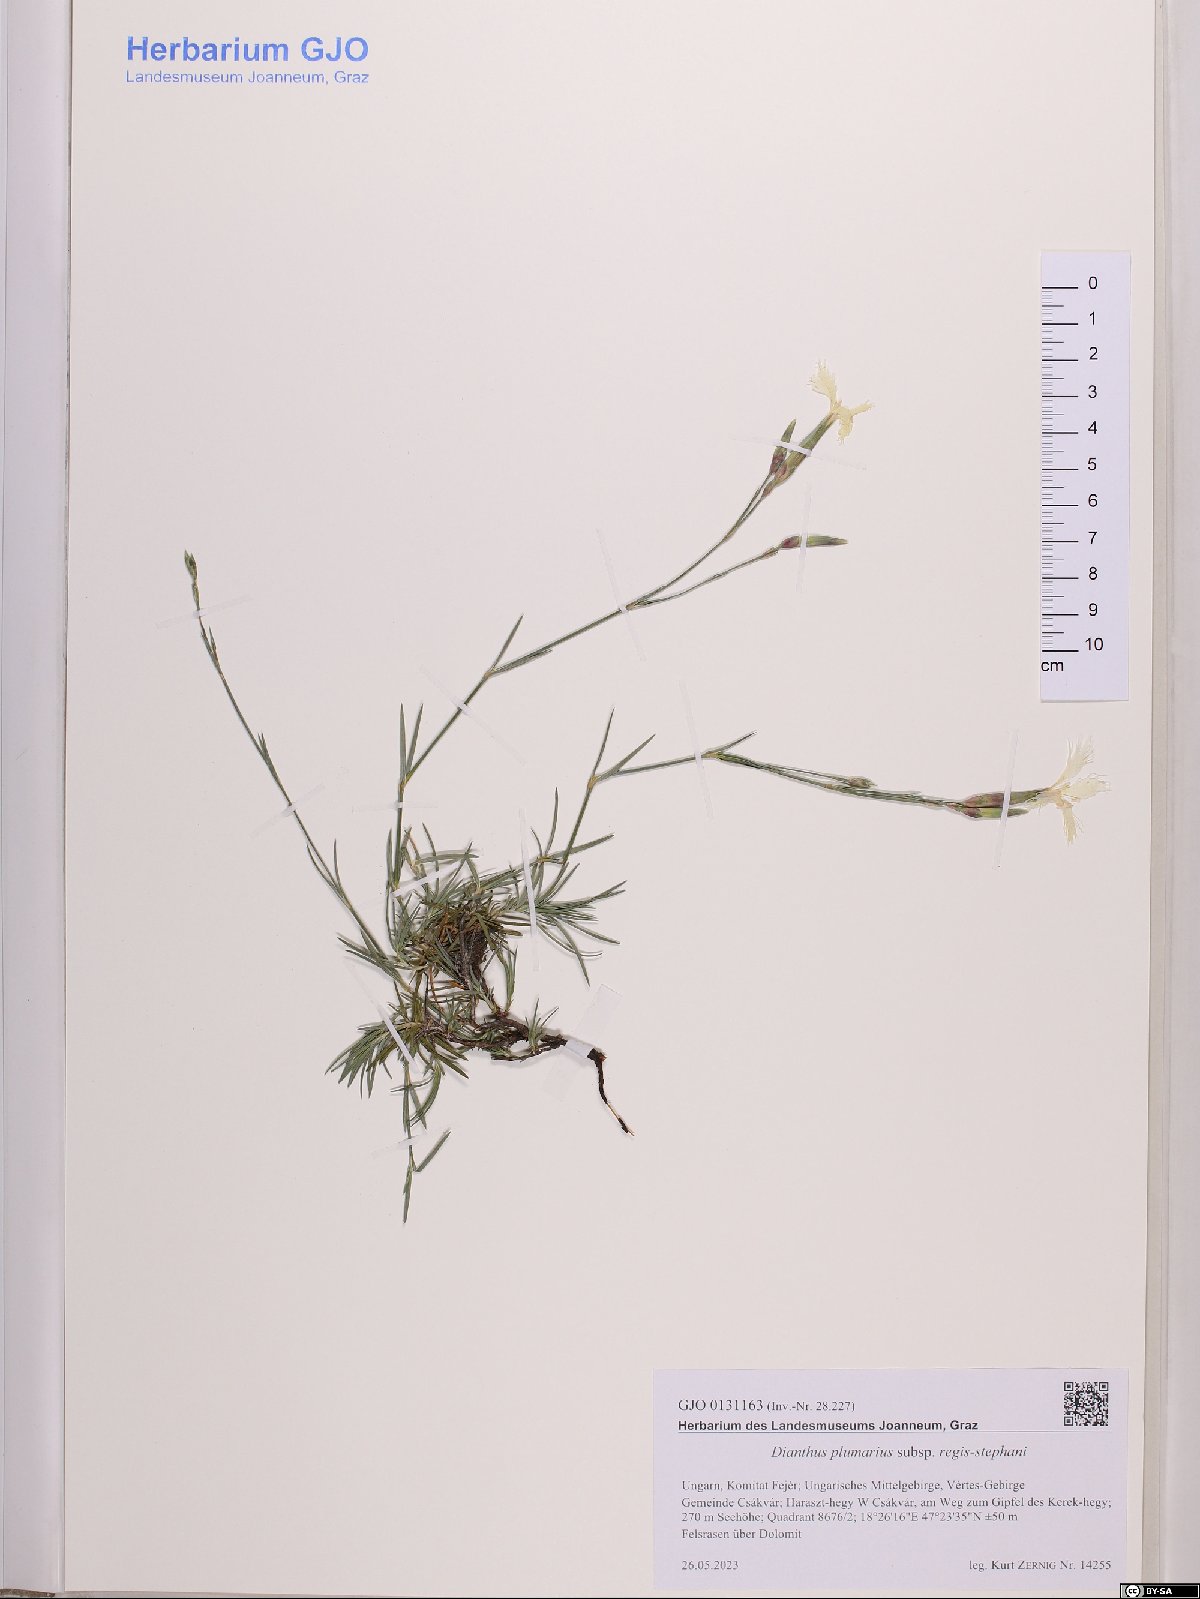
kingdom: Plantae
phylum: Tracheophyta
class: Magnoliopsida
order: Caryophyllales
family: Caryophyllaceae
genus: Dianthus
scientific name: Dianthus plumarius
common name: Pink
